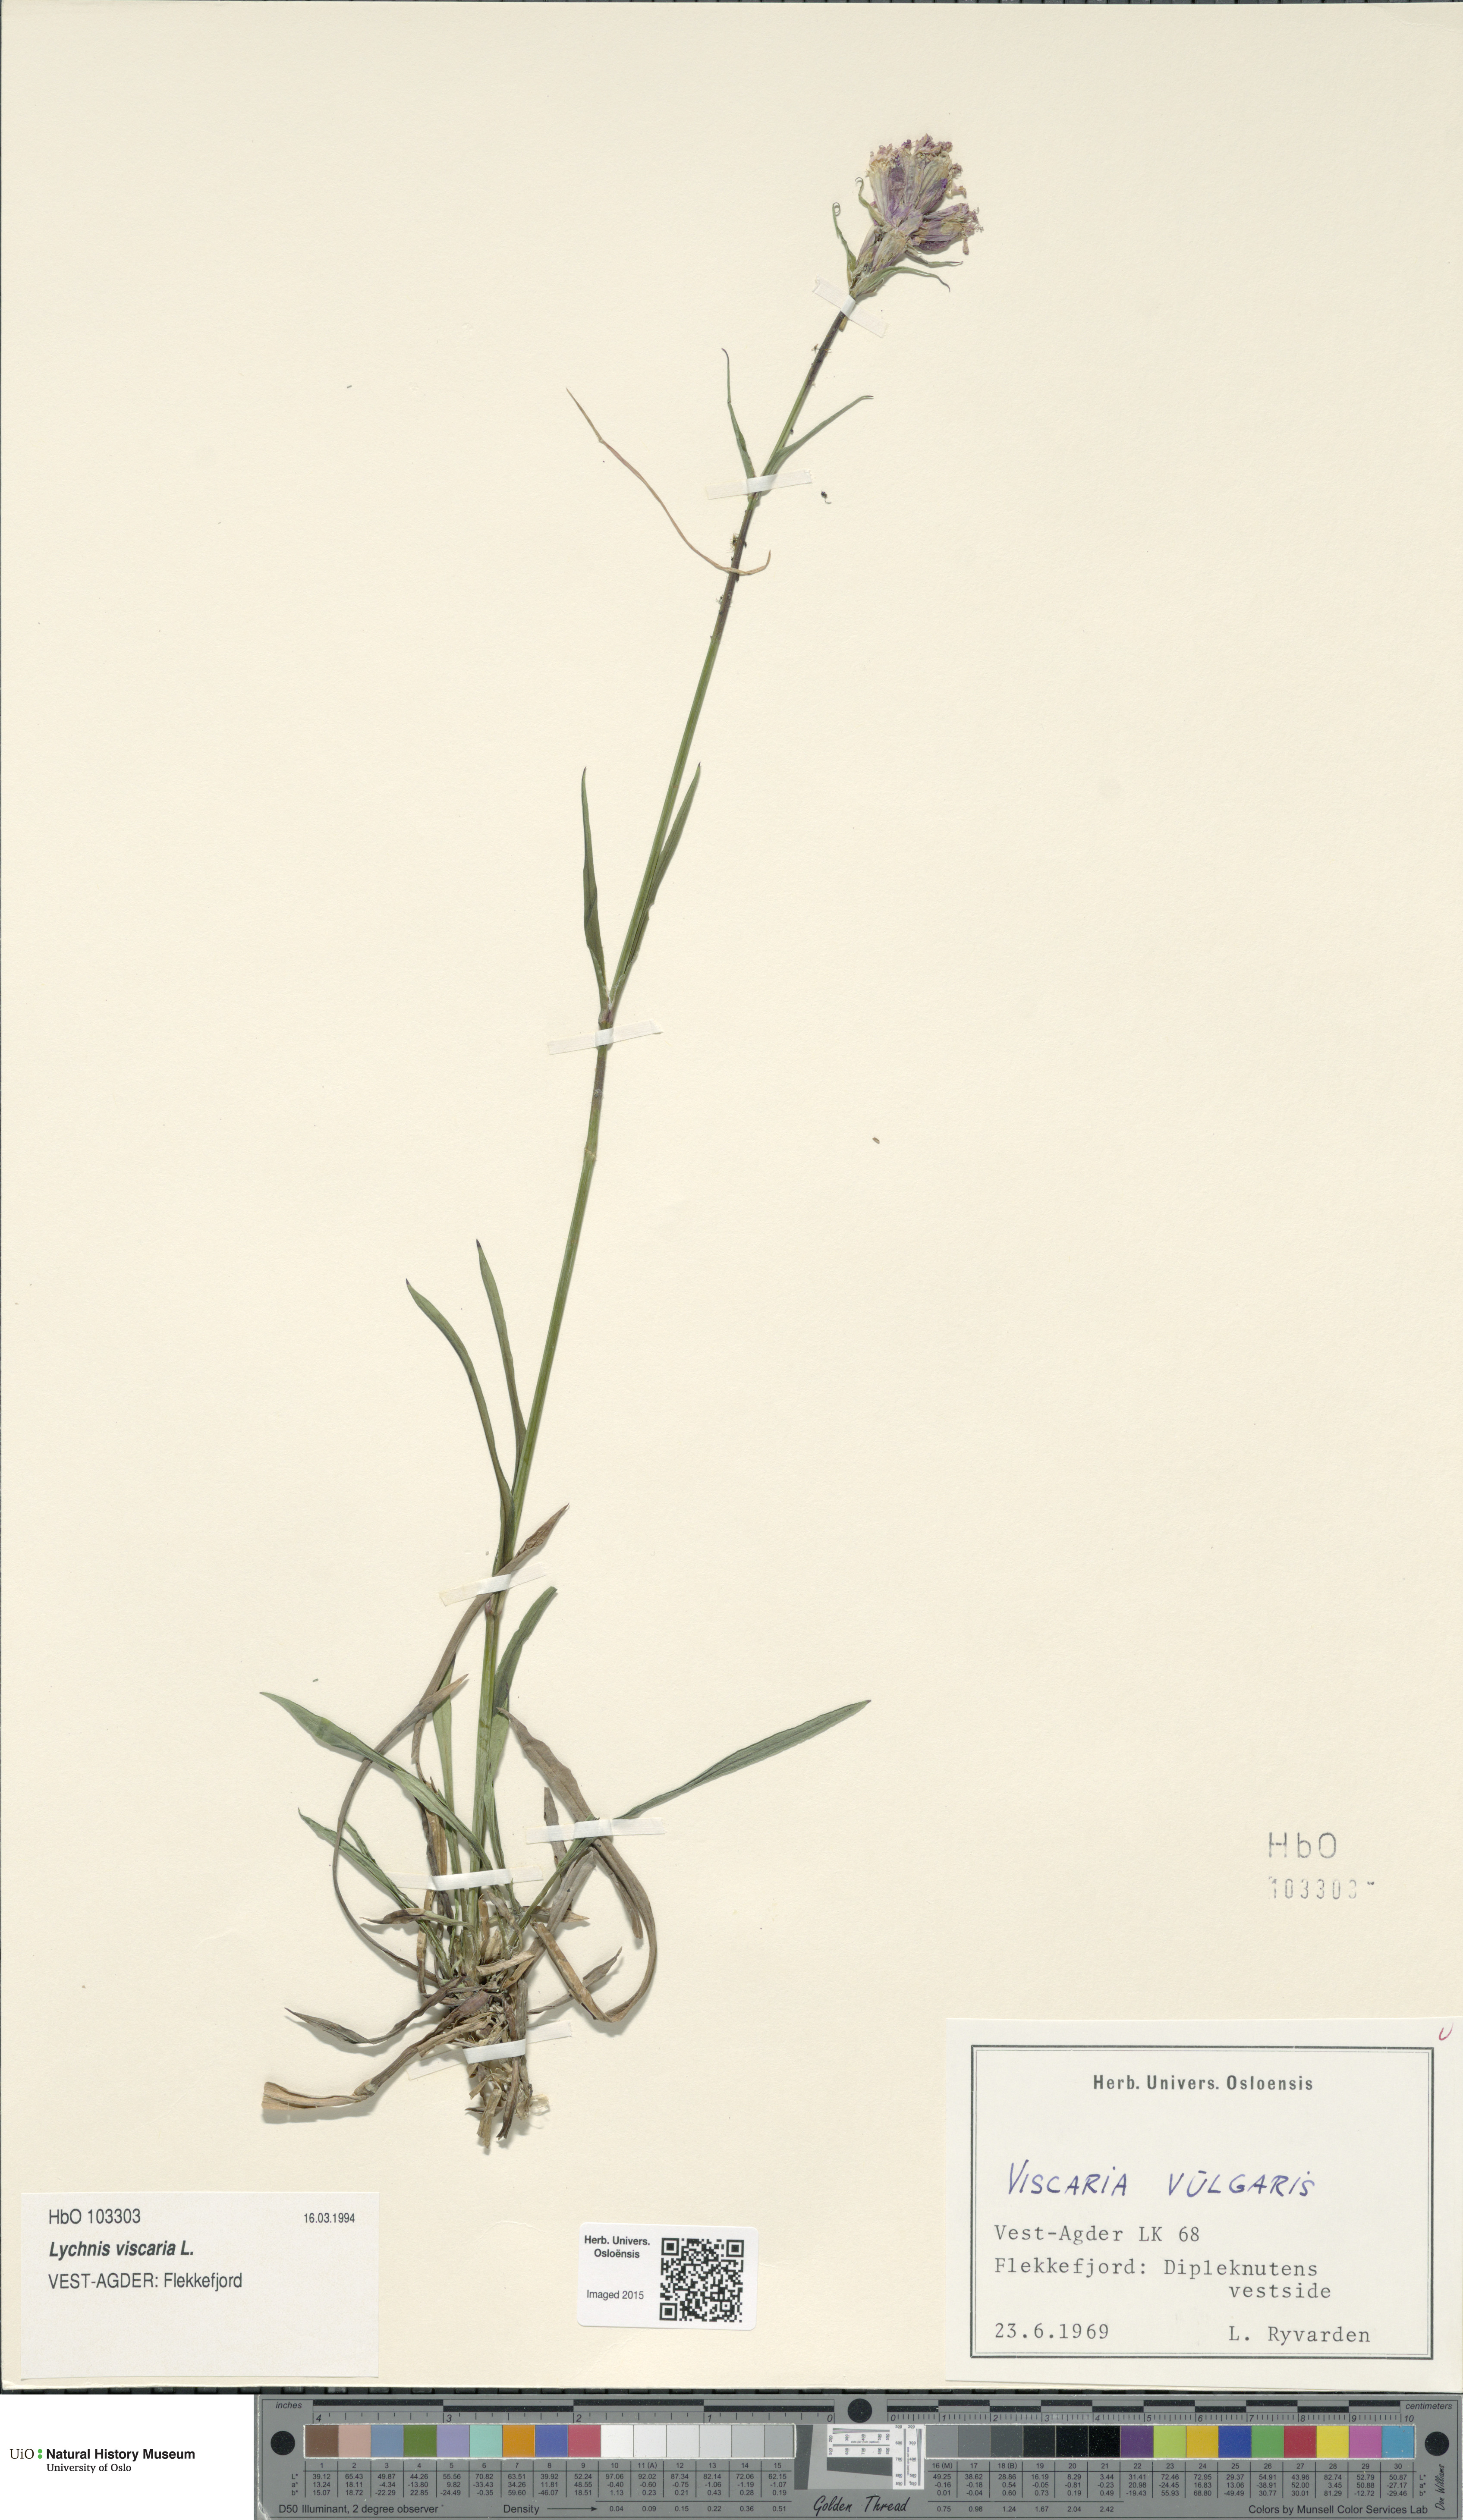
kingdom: Plantae
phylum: Tracheophyta
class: Magnoliopsida
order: Caryophyllales
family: Caryophyllaceae
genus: Viscaria
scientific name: Viscaria vulgaris
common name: Clammy campion
